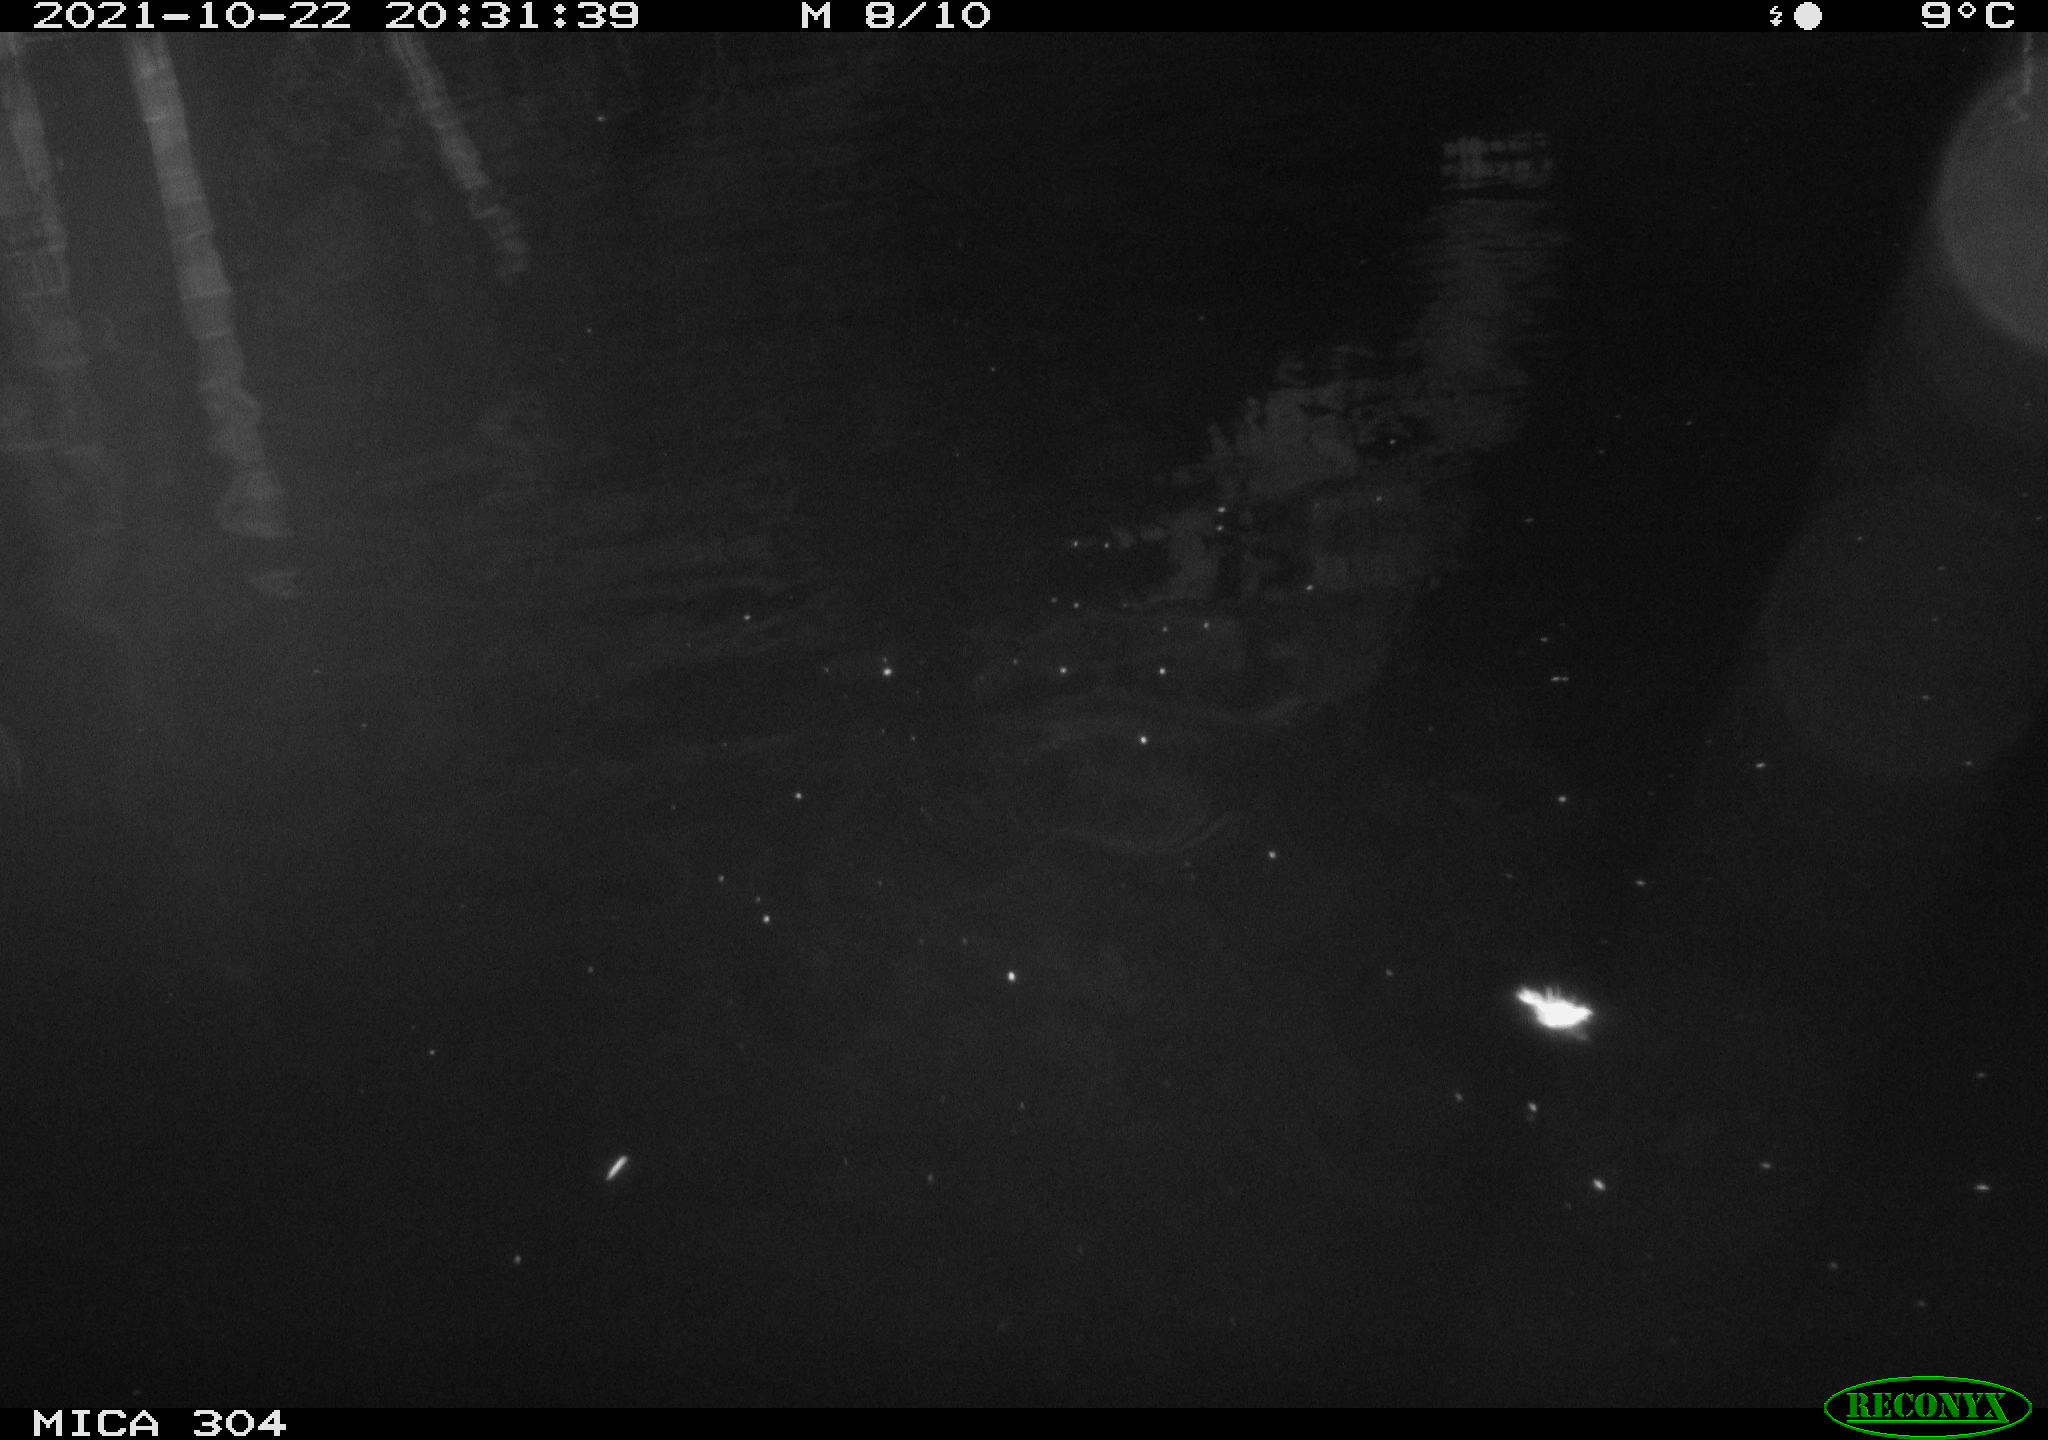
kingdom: Animalia
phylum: Chordata
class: Mammalia
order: Rodentia
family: Cricetidae
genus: Ondatra
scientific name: Ondatra zibethicus
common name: Muskrat
